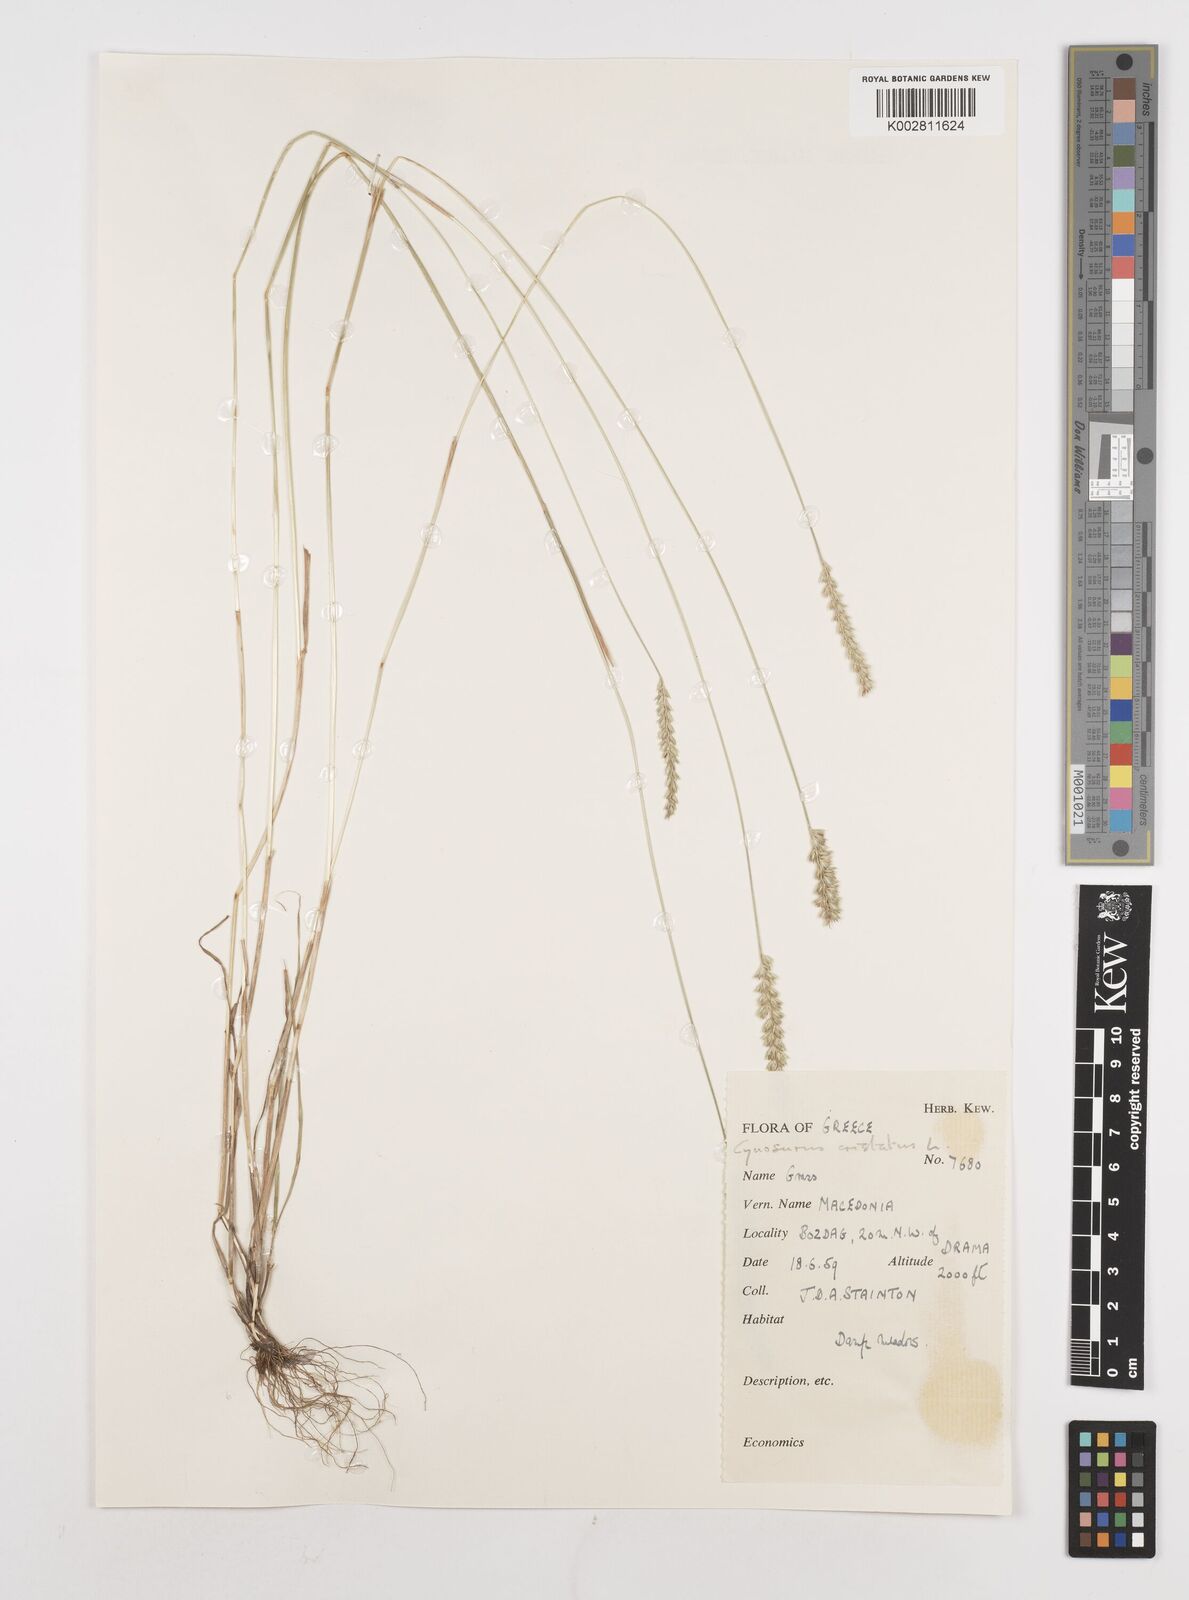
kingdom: Plantae
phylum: Tracheophyta
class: Liliopsida
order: Poales
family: Poaceae
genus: Cynosurus
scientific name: Cynosurus cristatus
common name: Crested dog's-tail
